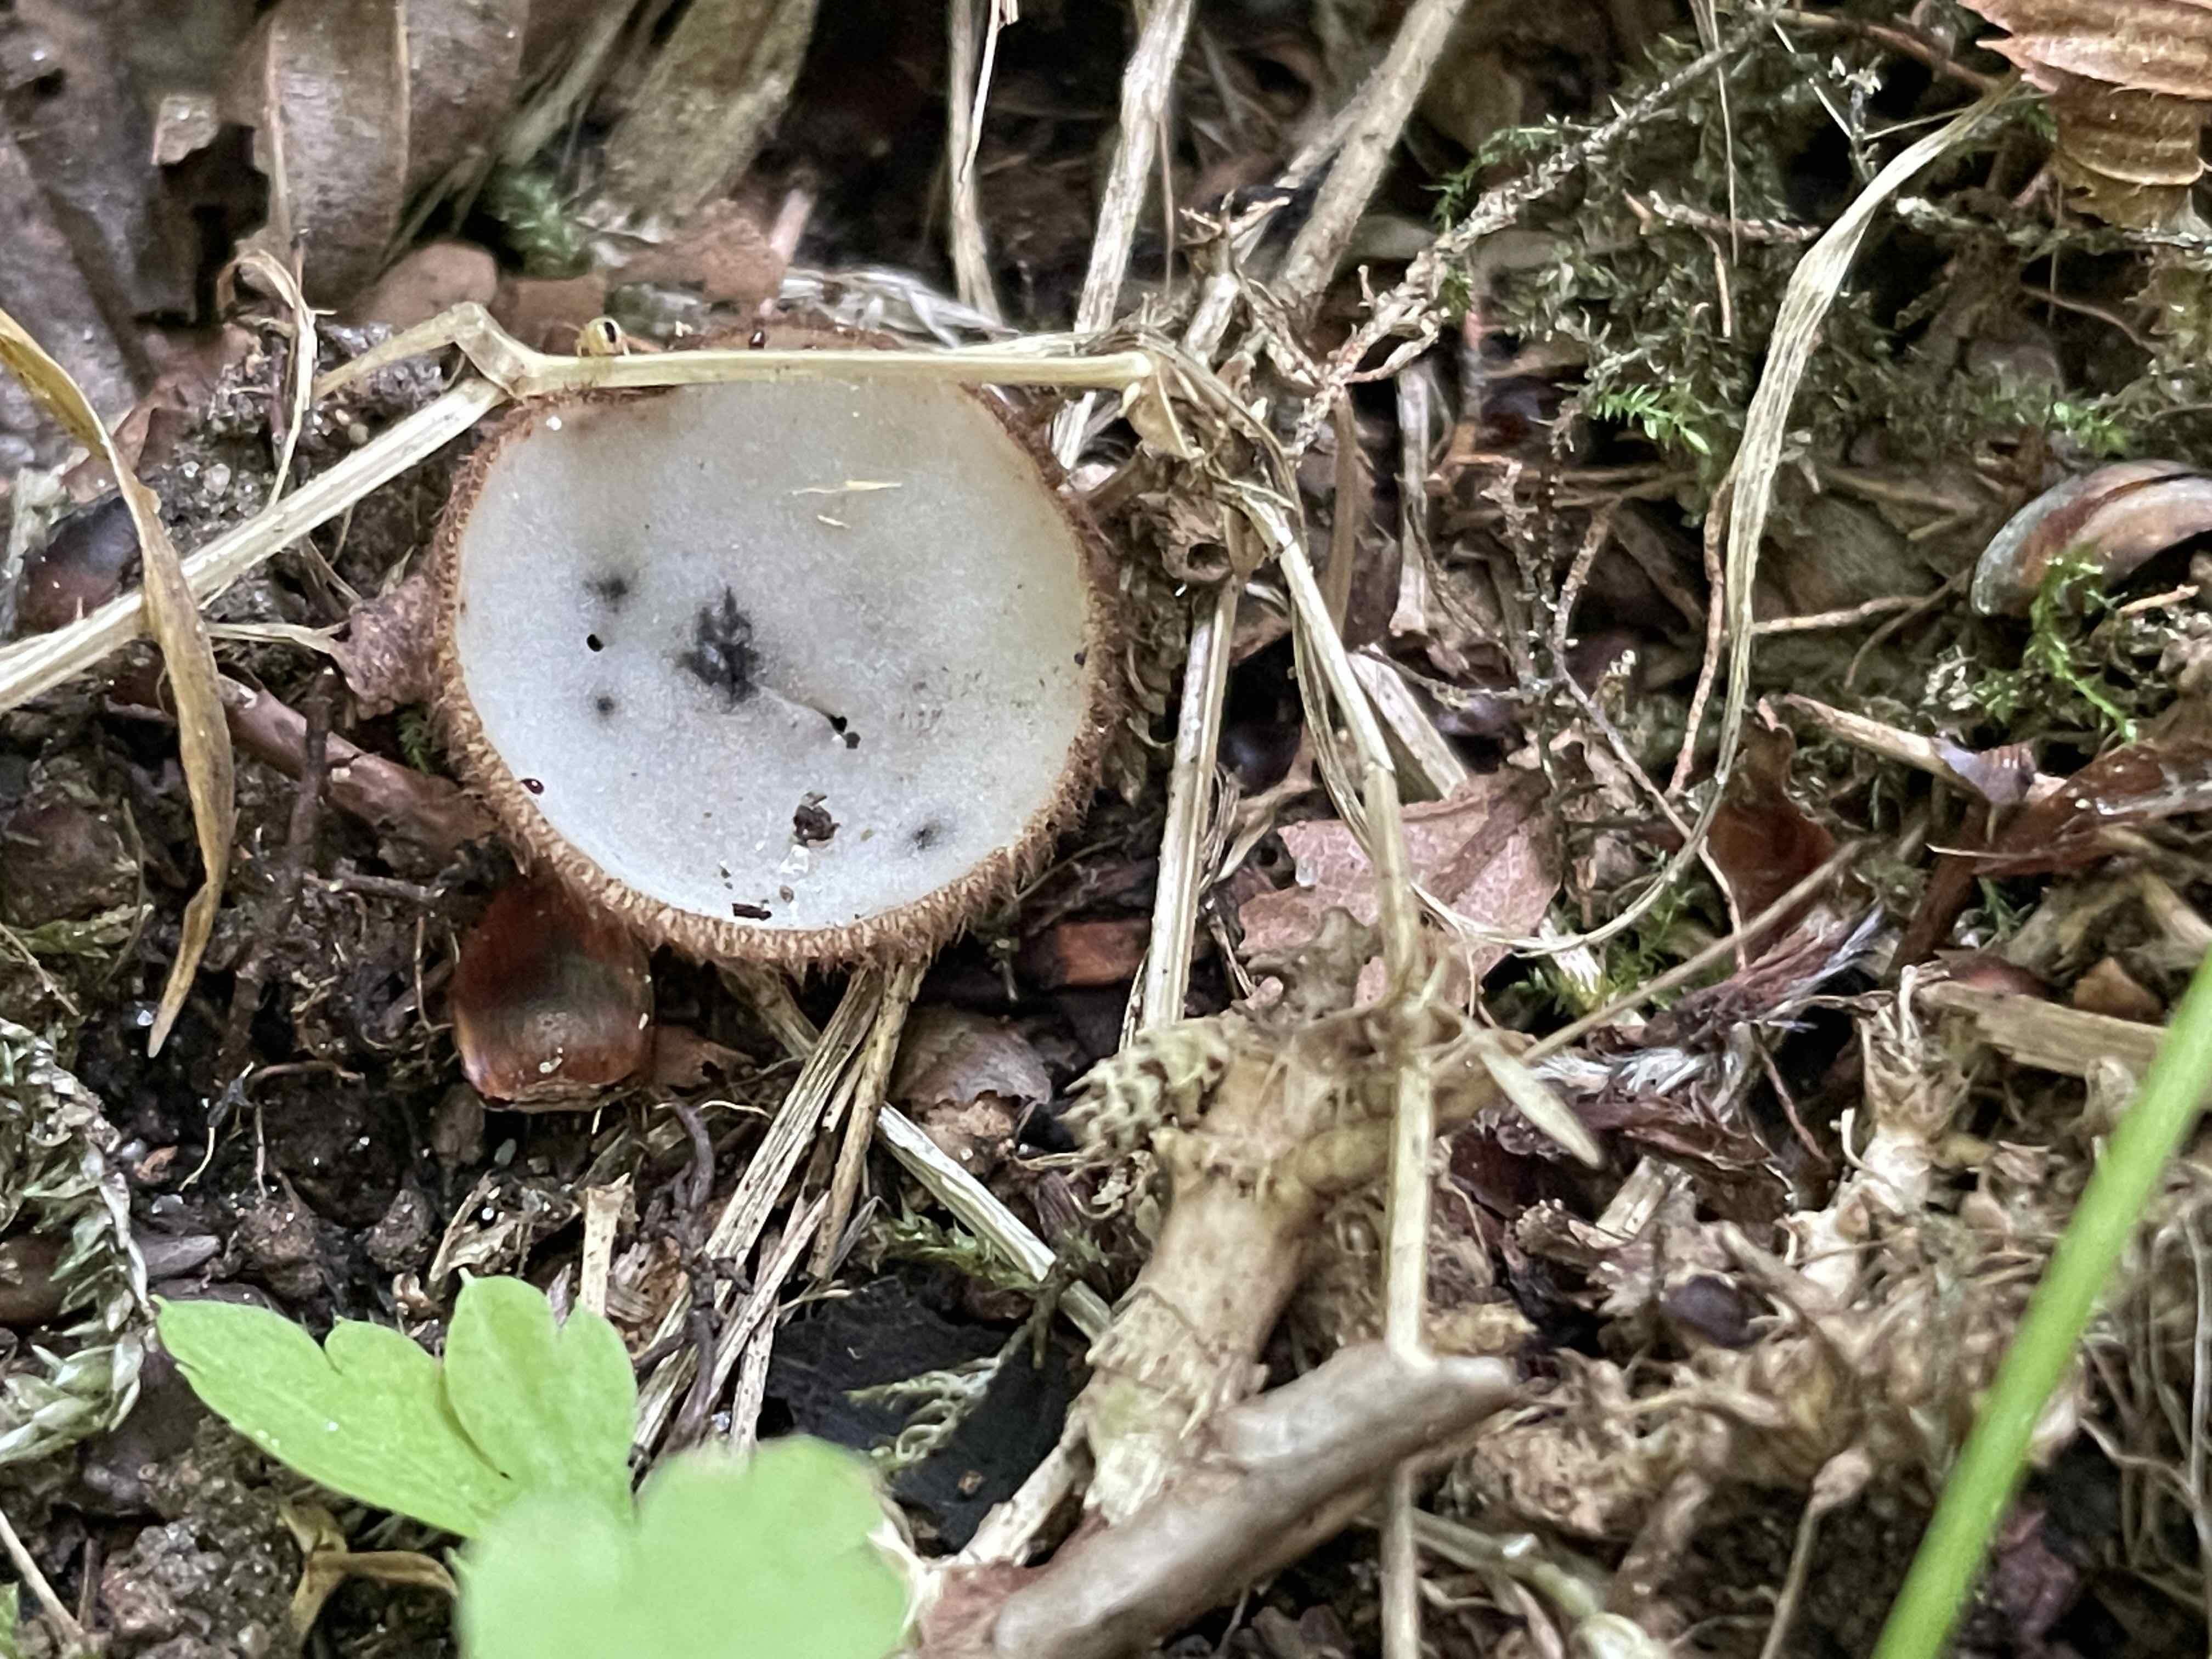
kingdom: Fungi
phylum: Ascomycota
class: Pezizomycetes
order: Pezizales
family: Pyronemataceae
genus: Humaria
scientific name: Humaria hemisphaerica
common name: halvkugleformet børstebæger
